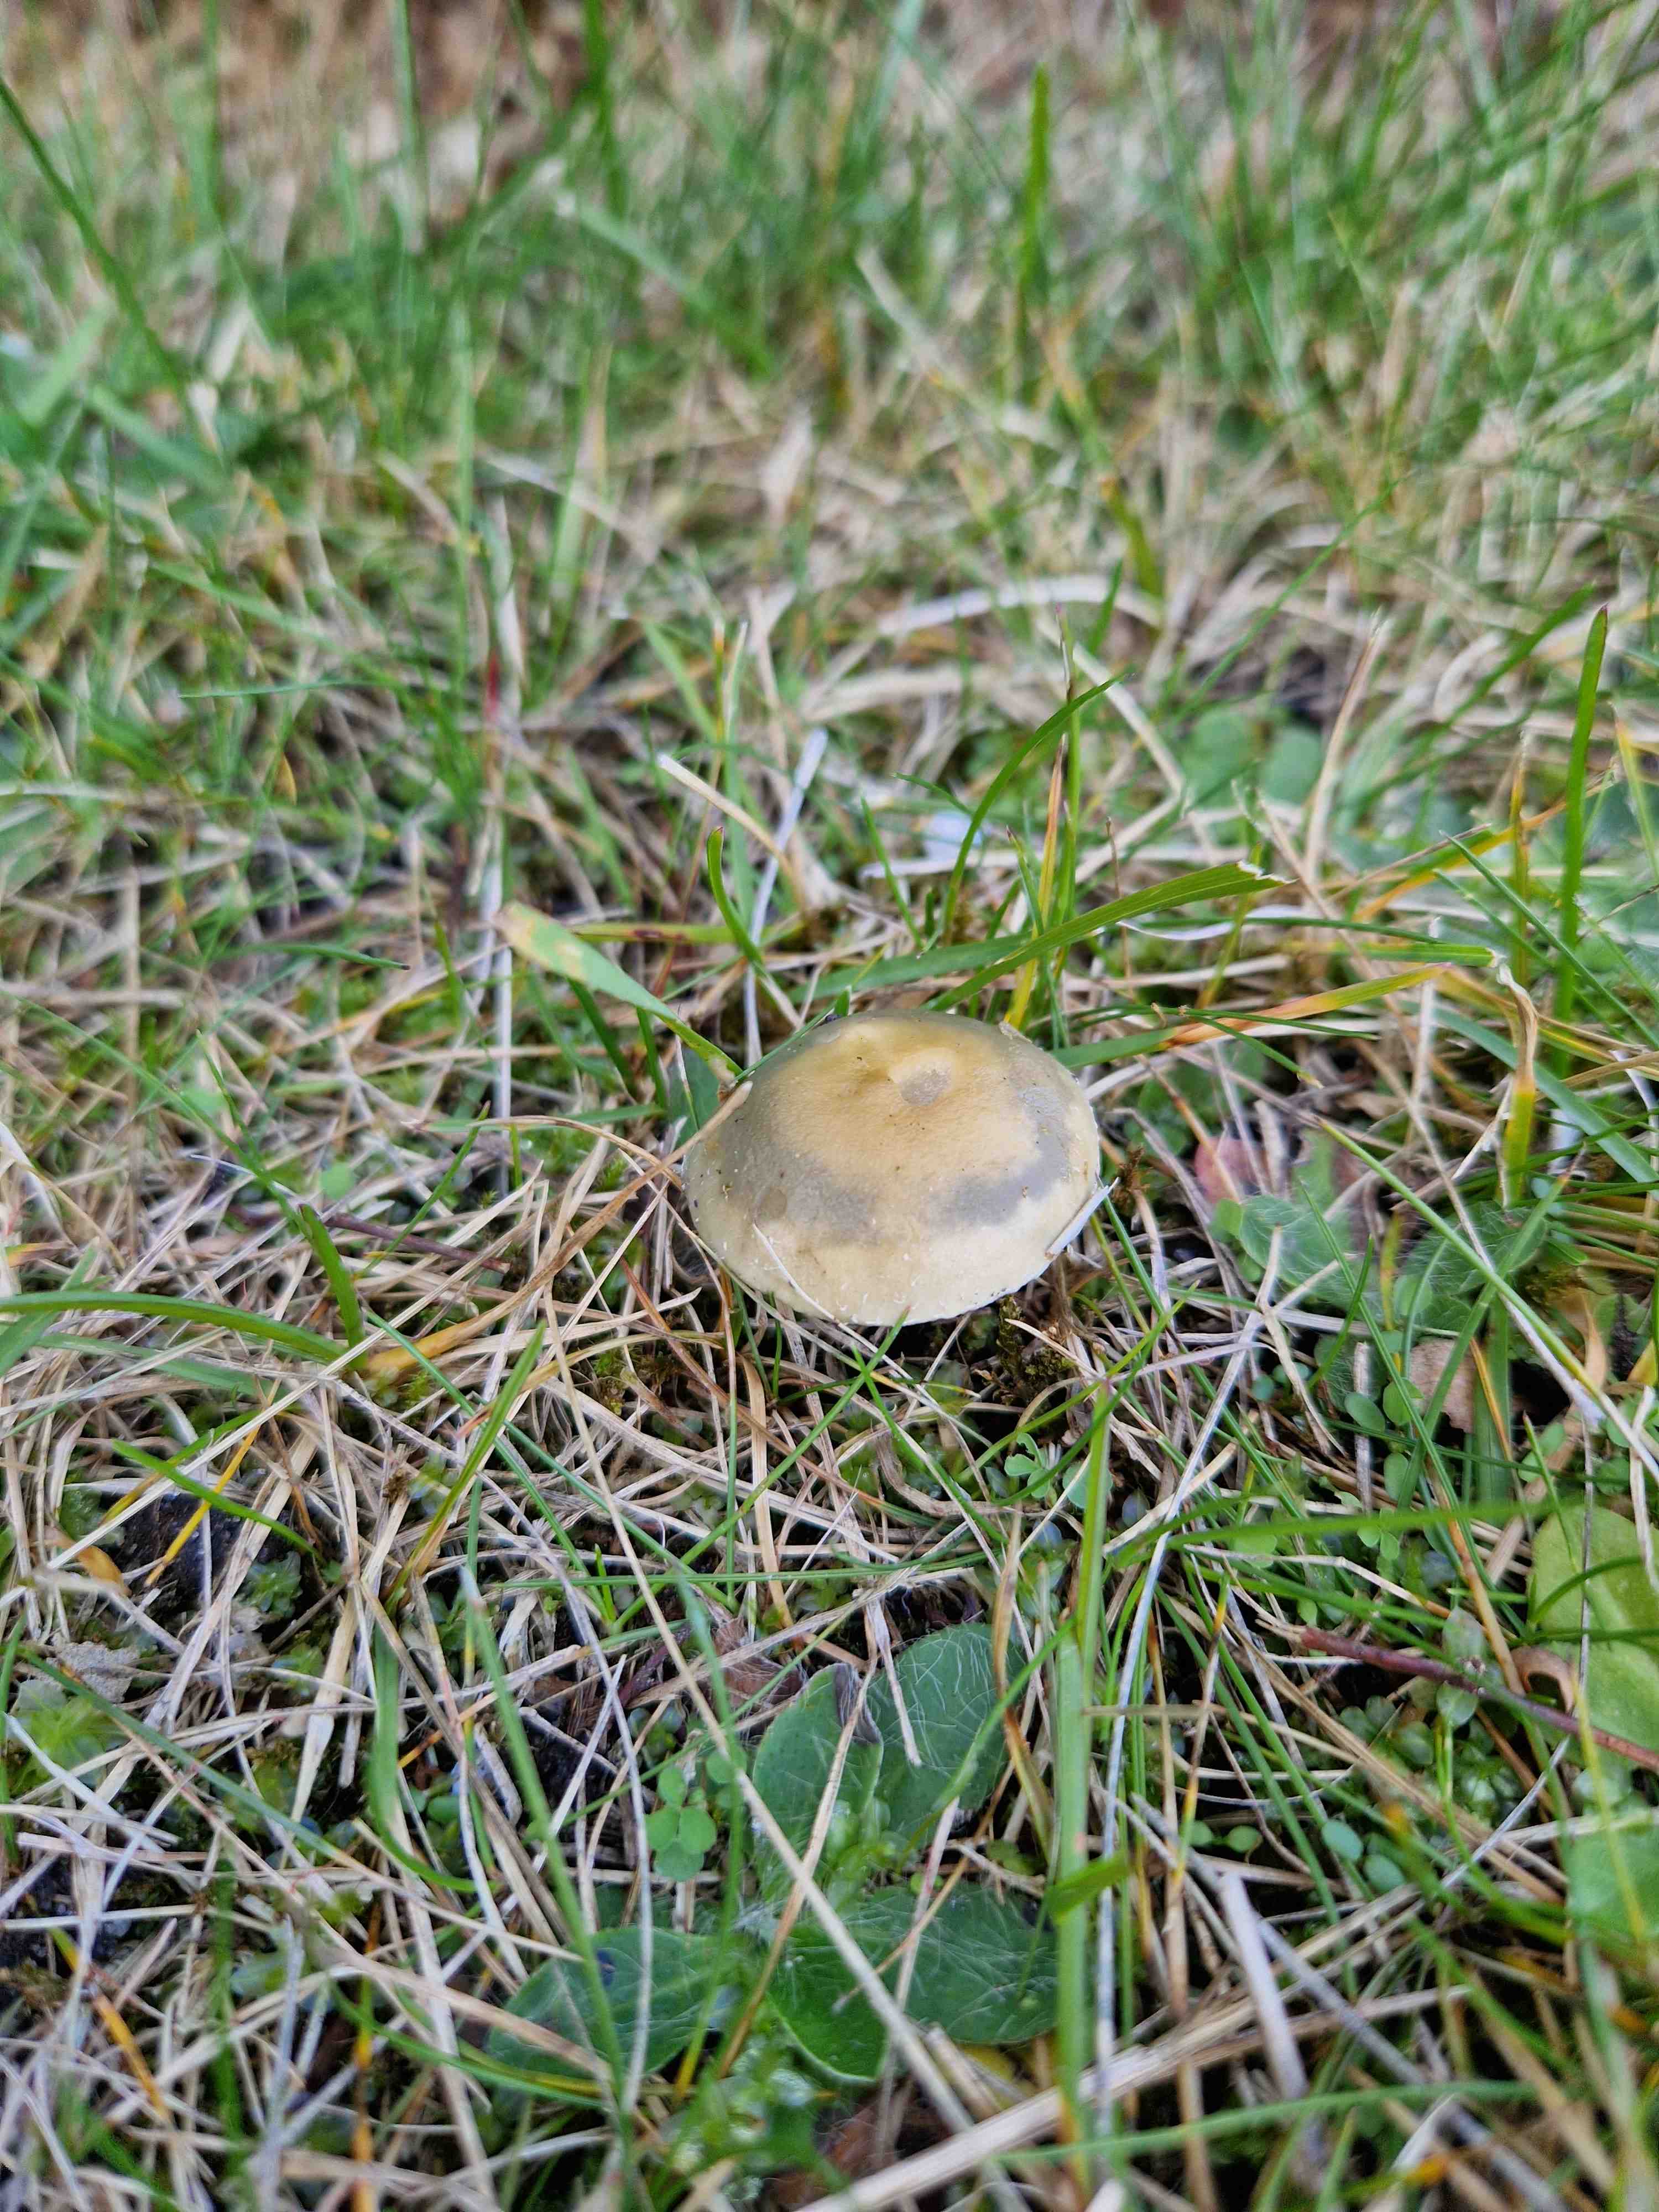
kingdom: Fungi
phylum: Basidiomycota
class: Agaricomycetes
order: Agaricales
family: Strophariaceae
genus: Stropharia
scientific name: Stropharia
